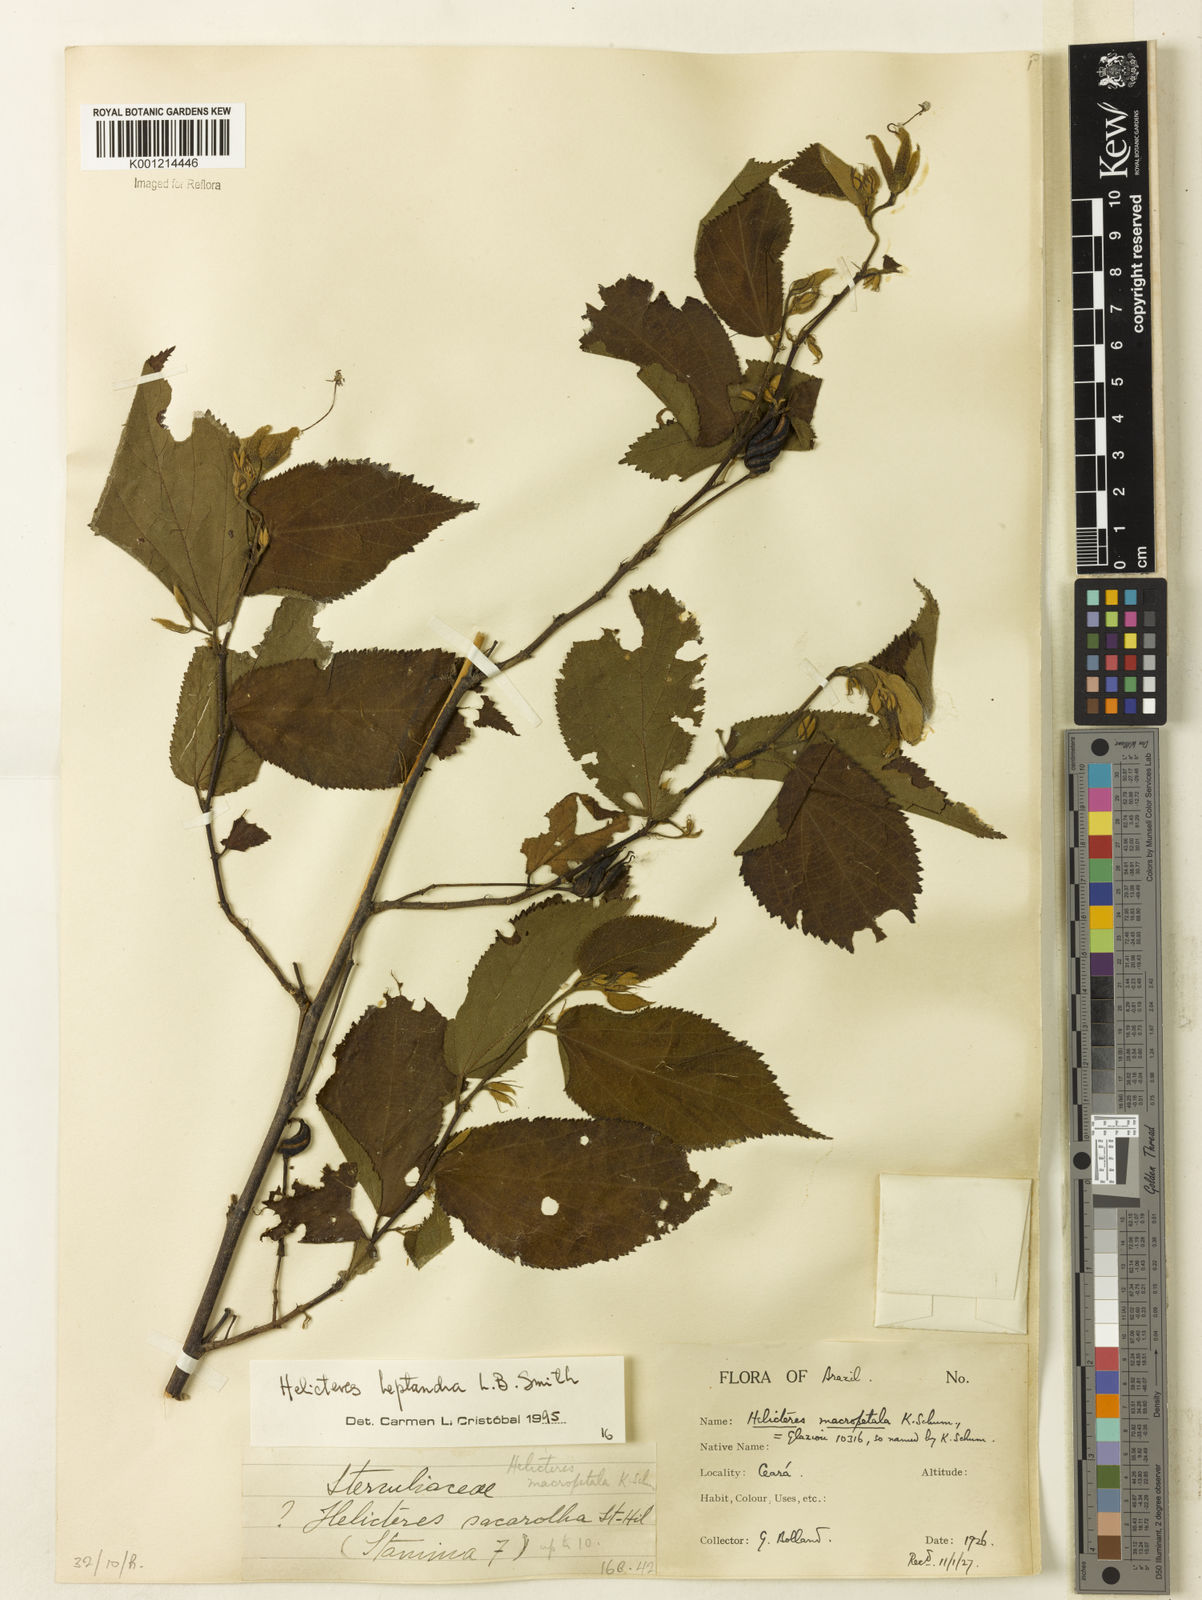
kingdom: Plantae
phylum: Tracheophyta
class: Magnoliopsida
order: Malvales
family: Malvaceae
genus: Helicteres
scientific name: Helicteres heptandra
